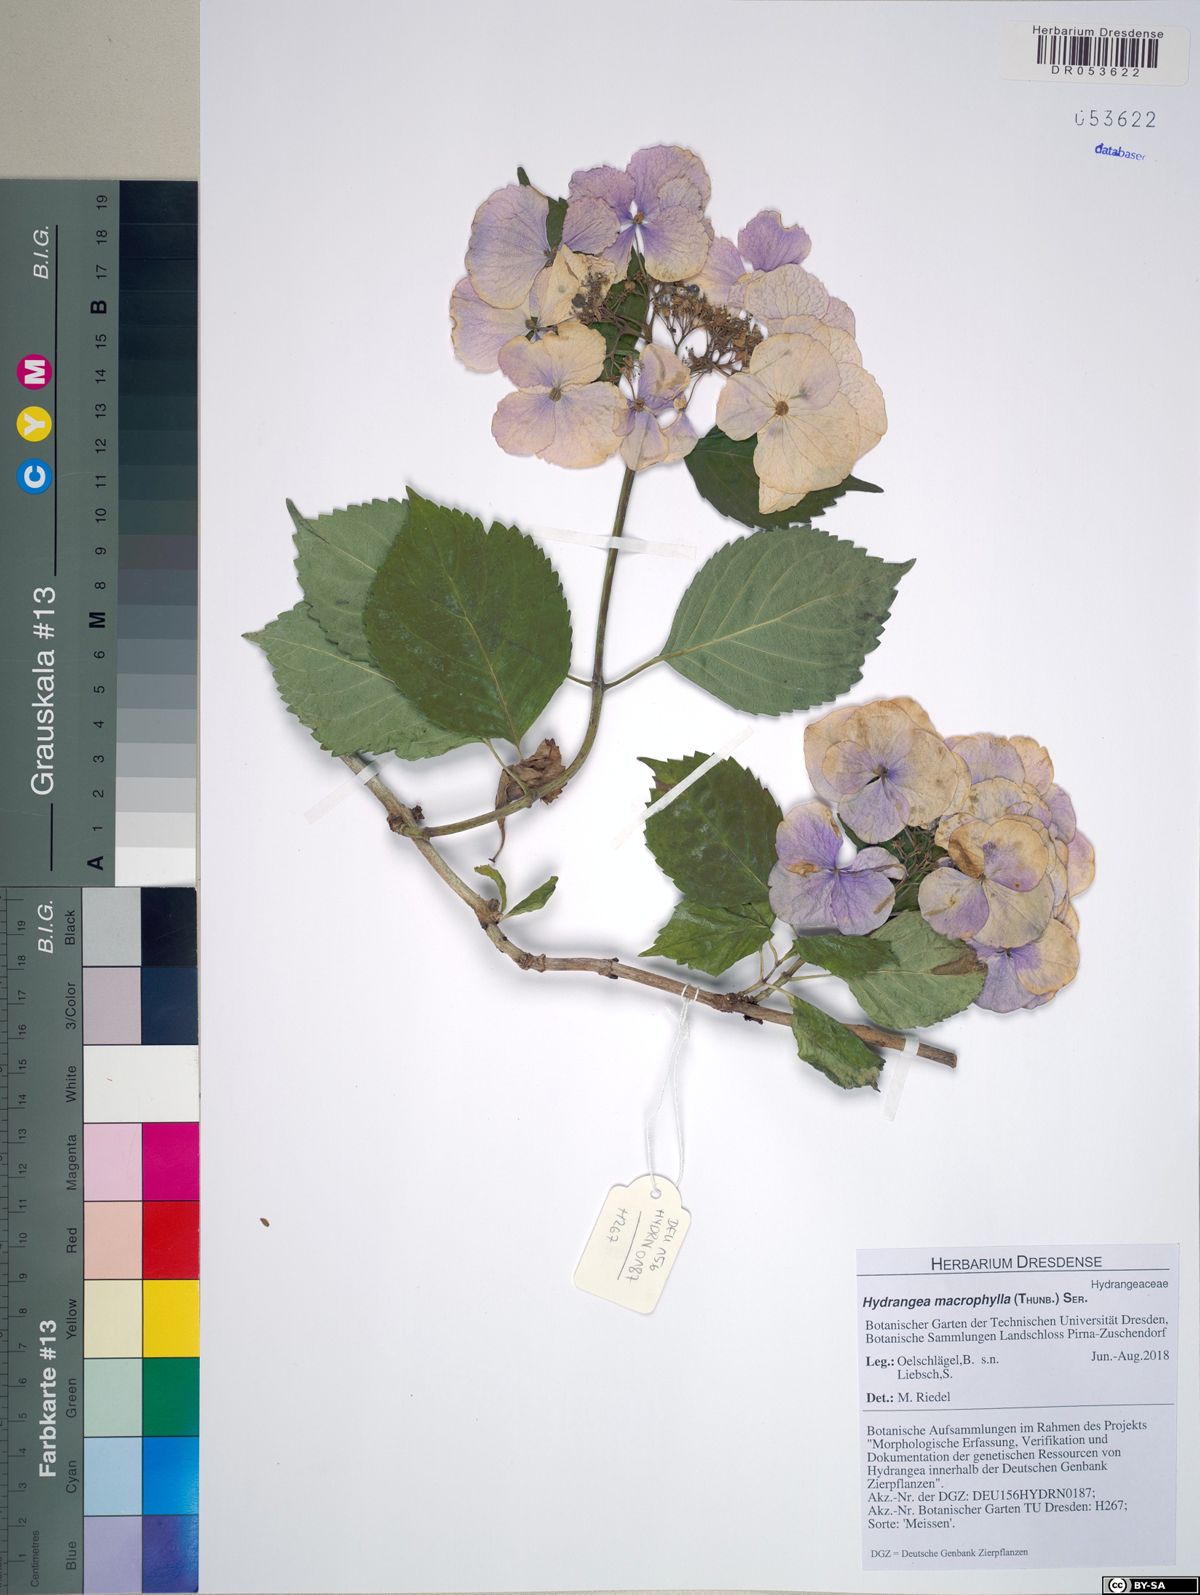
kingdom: Plantae
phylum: Tracheophyta
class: Magnoliopsida
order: Cornales
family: Hydrangeaceae
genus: Hydrangea
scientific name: Hydrangea macrophylla
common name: Hydrangea
